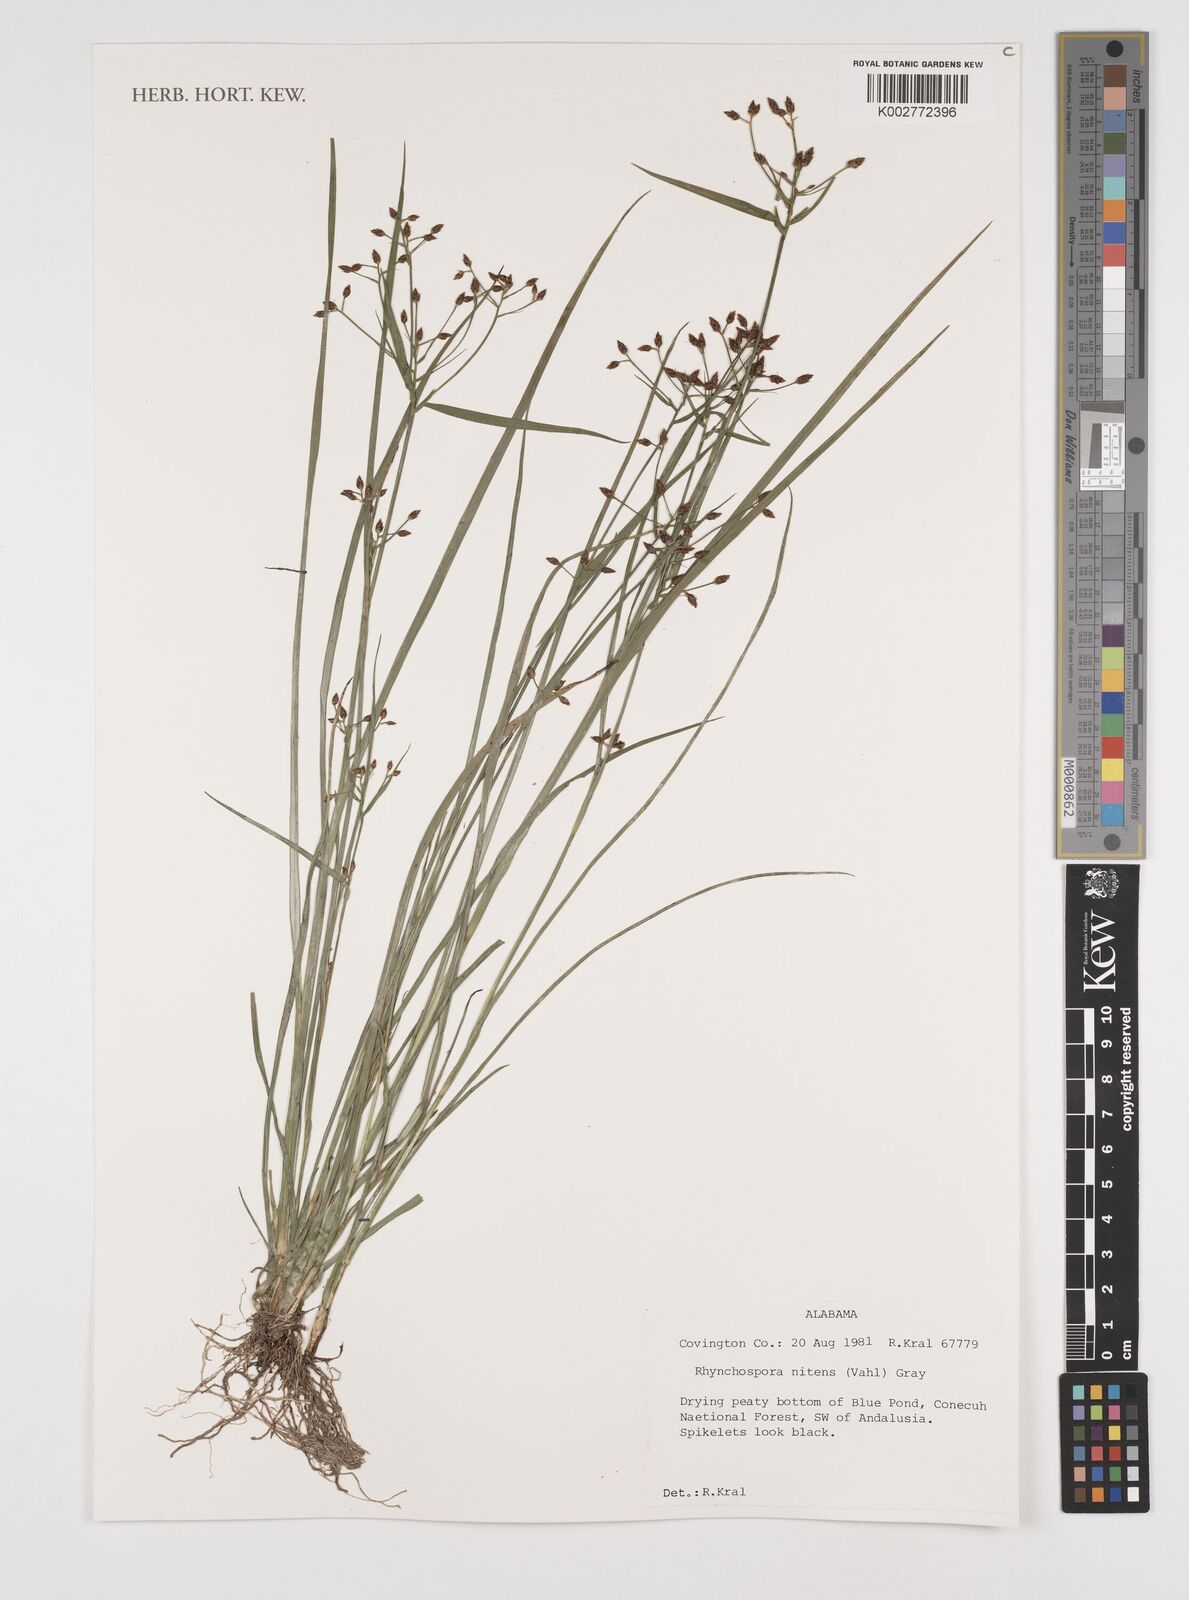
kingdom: Plantae
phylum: Tracheophyta
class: Liliopsida
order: Poales
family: Cyperaceae
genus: Rhynchospora
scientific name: Rhynchospora nitens
